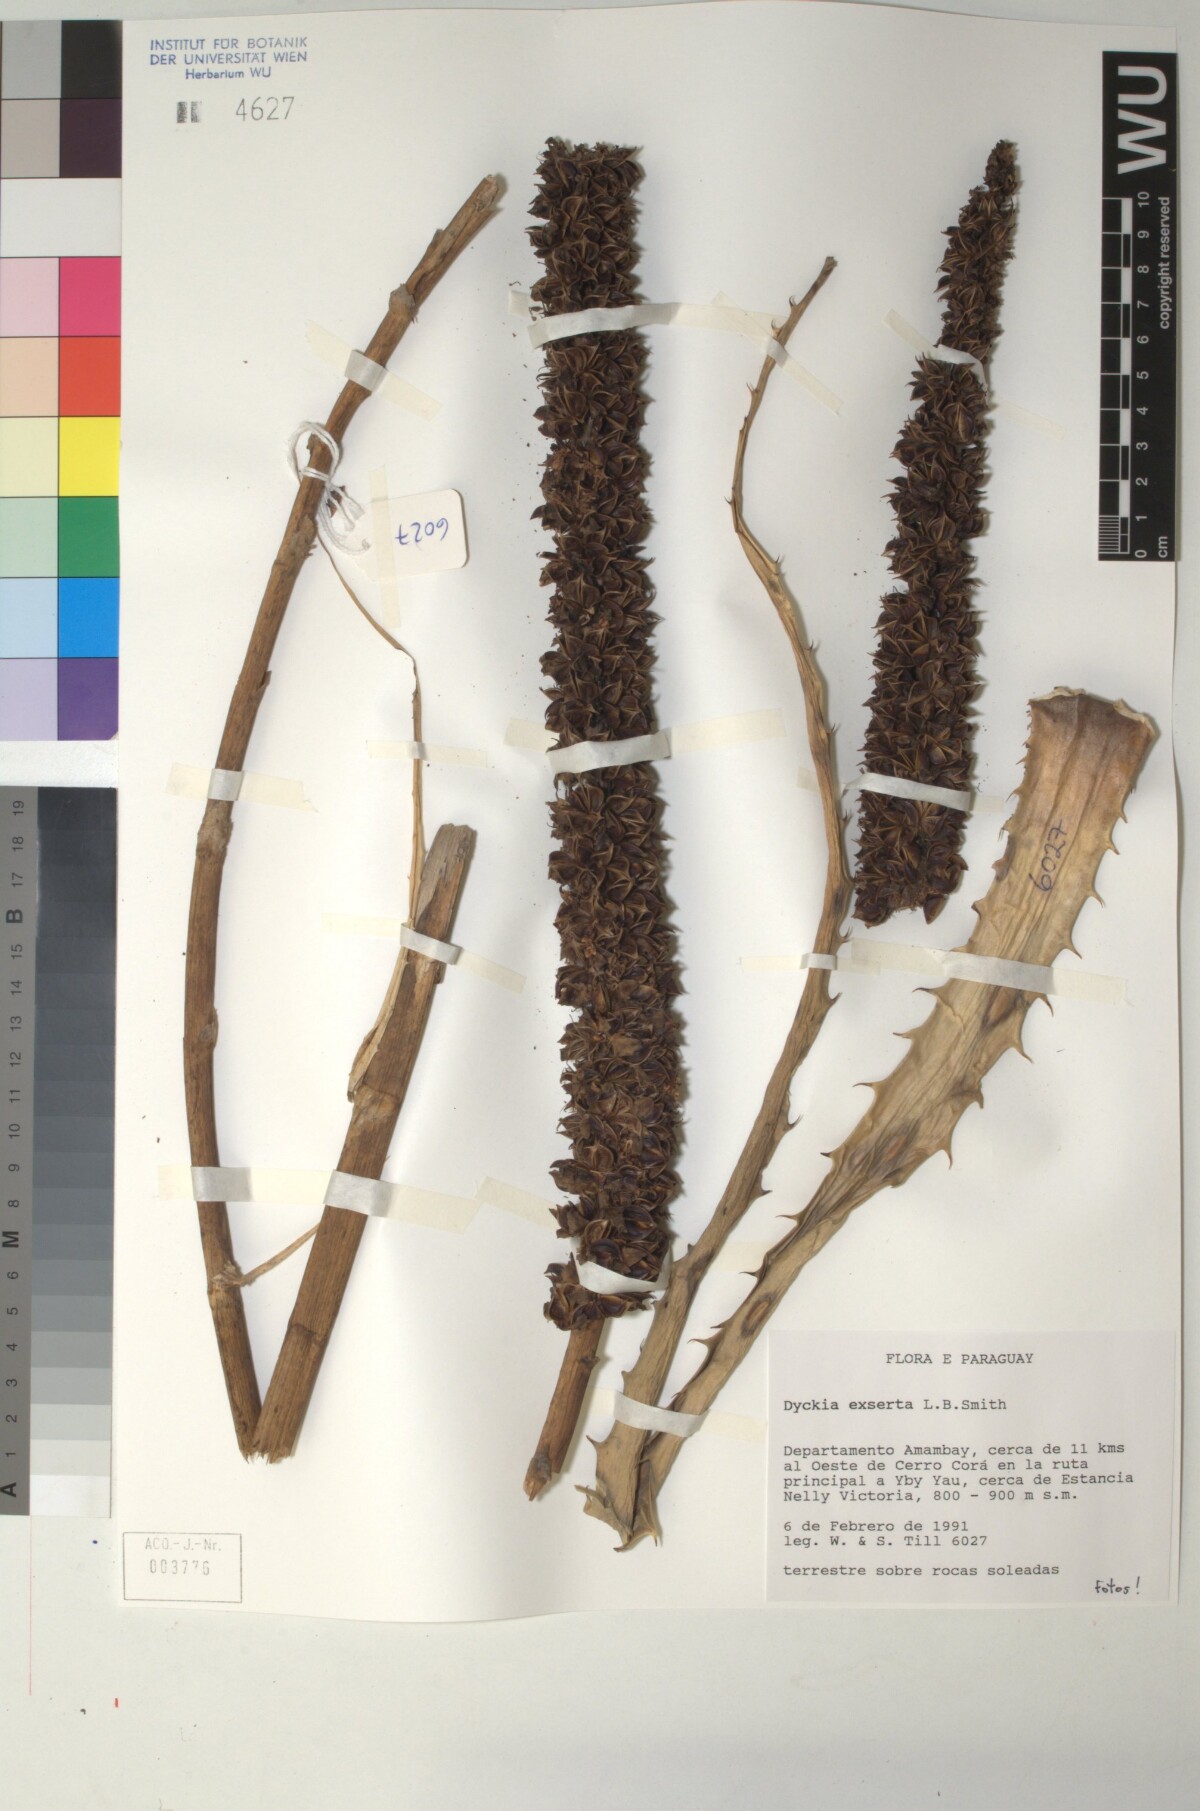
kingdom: Plantae
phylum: Tracheophyta
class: Liliopsida
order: Poales
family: Bromeliaceae
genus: Dyckia
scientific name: Dyckia exserta
